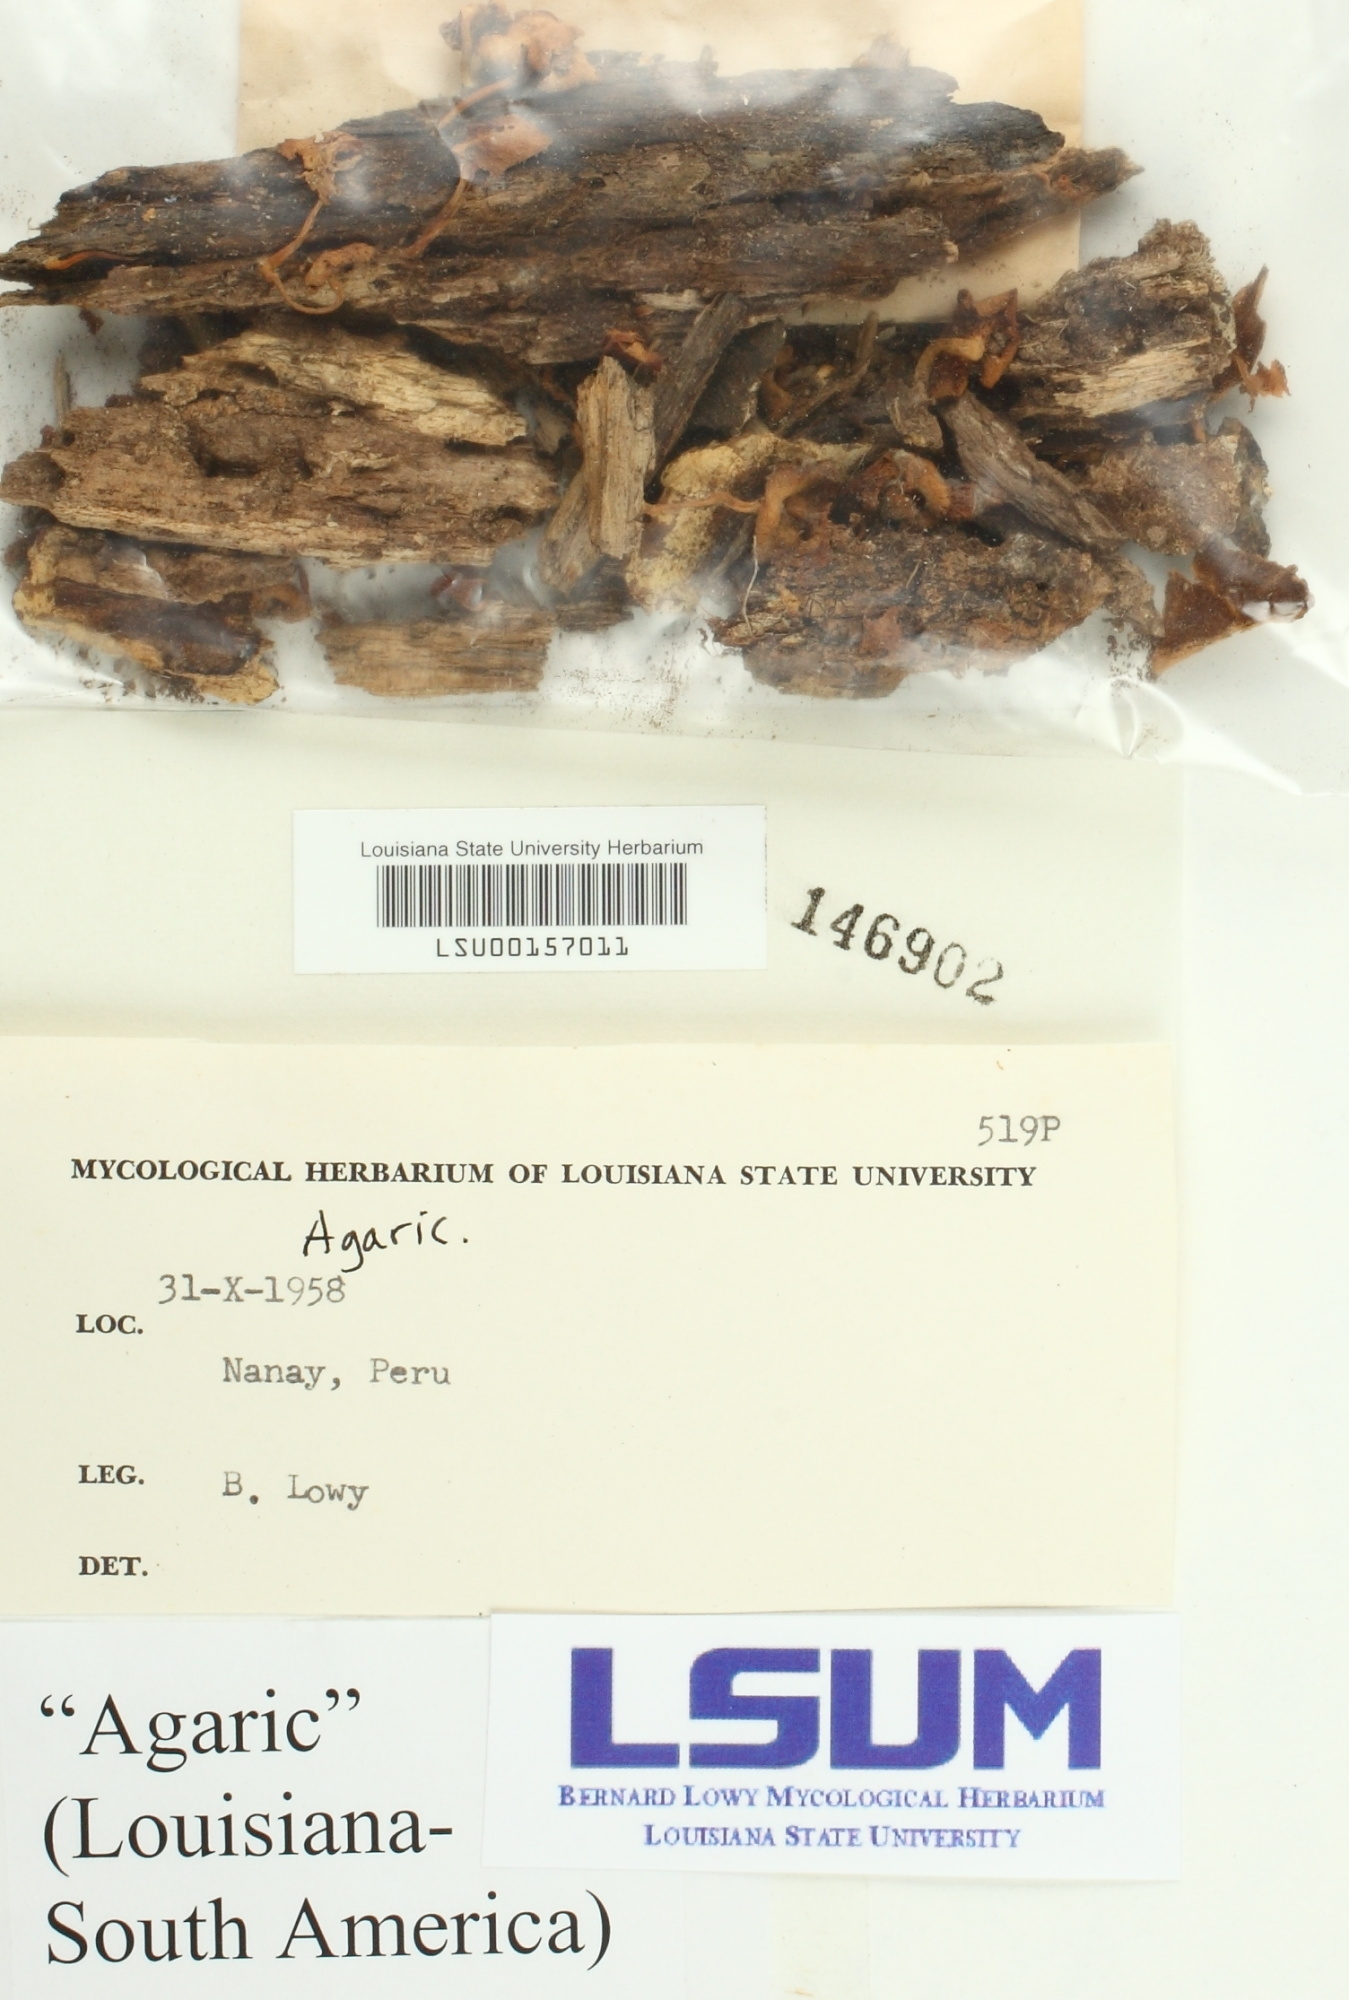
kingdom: Fungi
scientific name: Fungi
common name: Fungi
